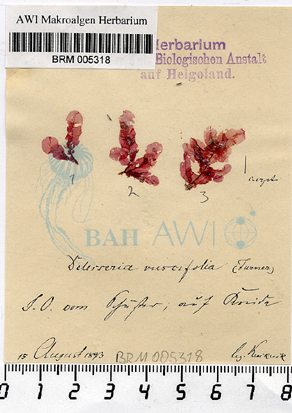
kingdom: Plantae
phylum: Rhodophyta
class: Florideophyceae
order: Ceramiales
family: Delesseriaceae
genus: Apoglossum
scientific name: Apoglossum ruscifolium
